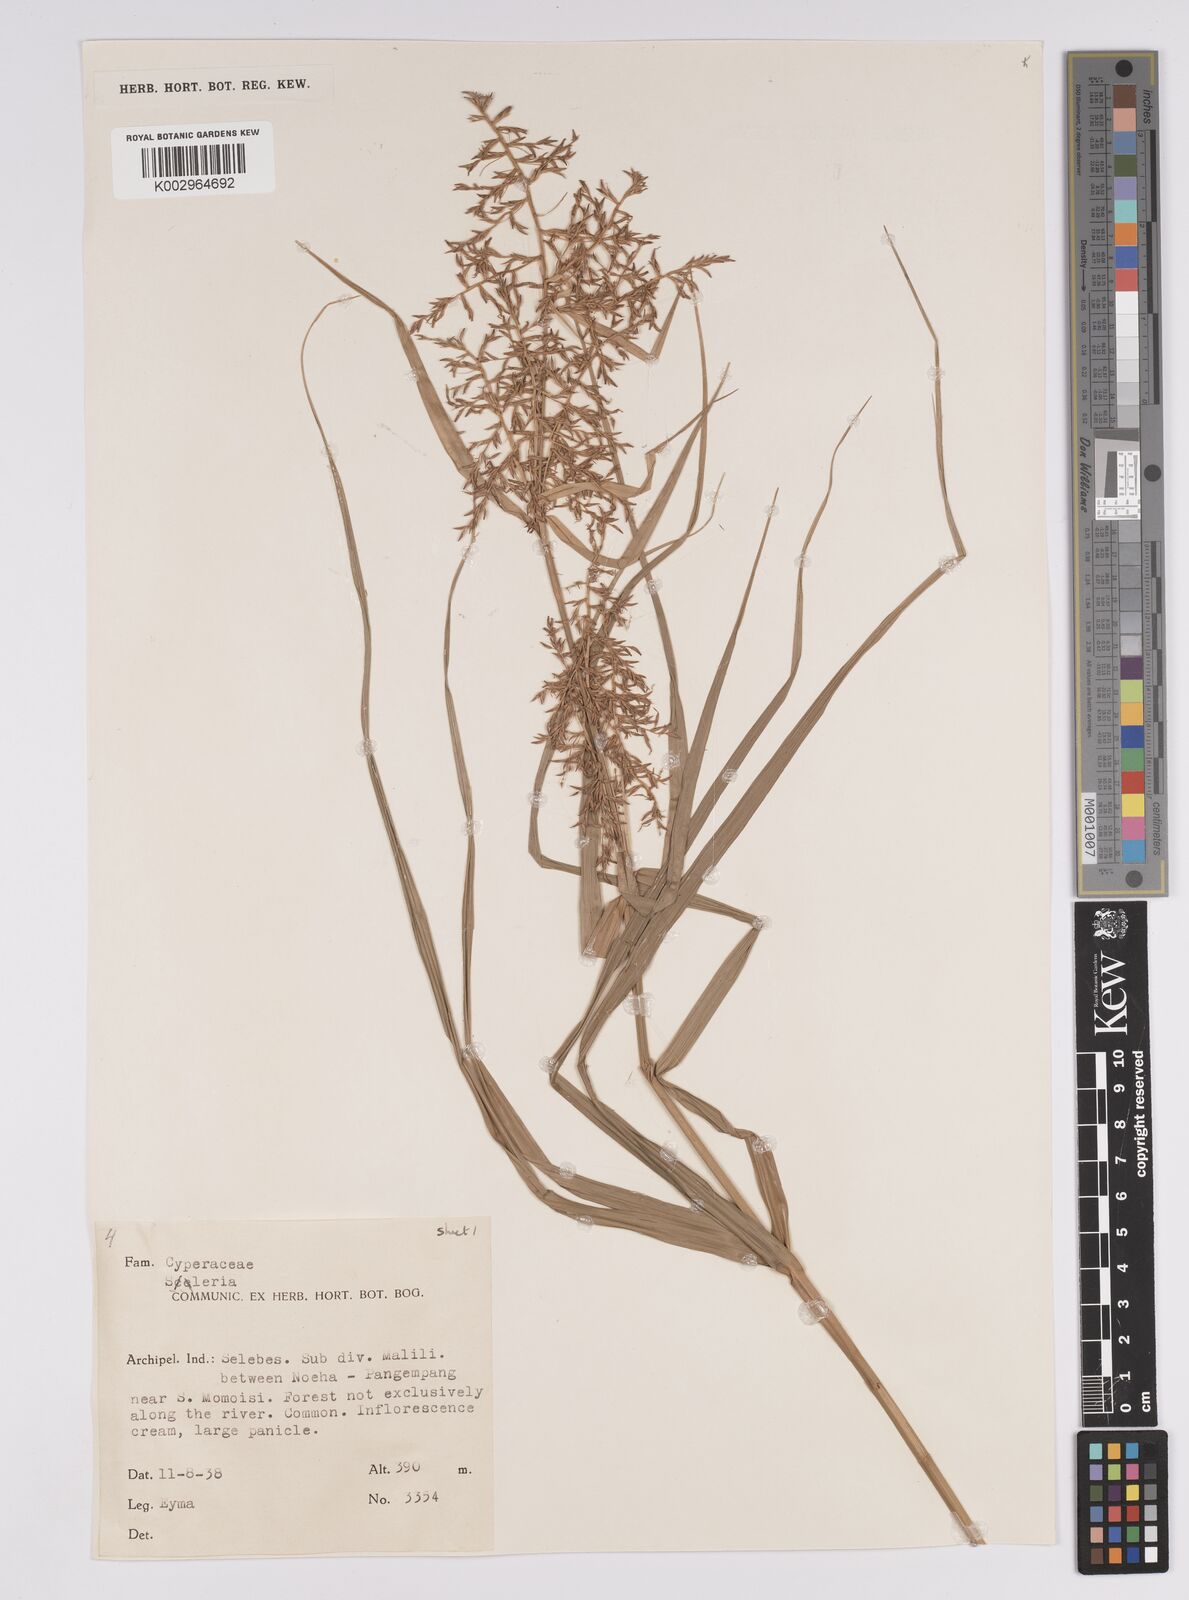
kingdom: Plantae
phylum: Tracheophyta
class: Liliopsida
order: Poales
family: Cyperaceae
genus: Scleria
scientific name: Scleria
